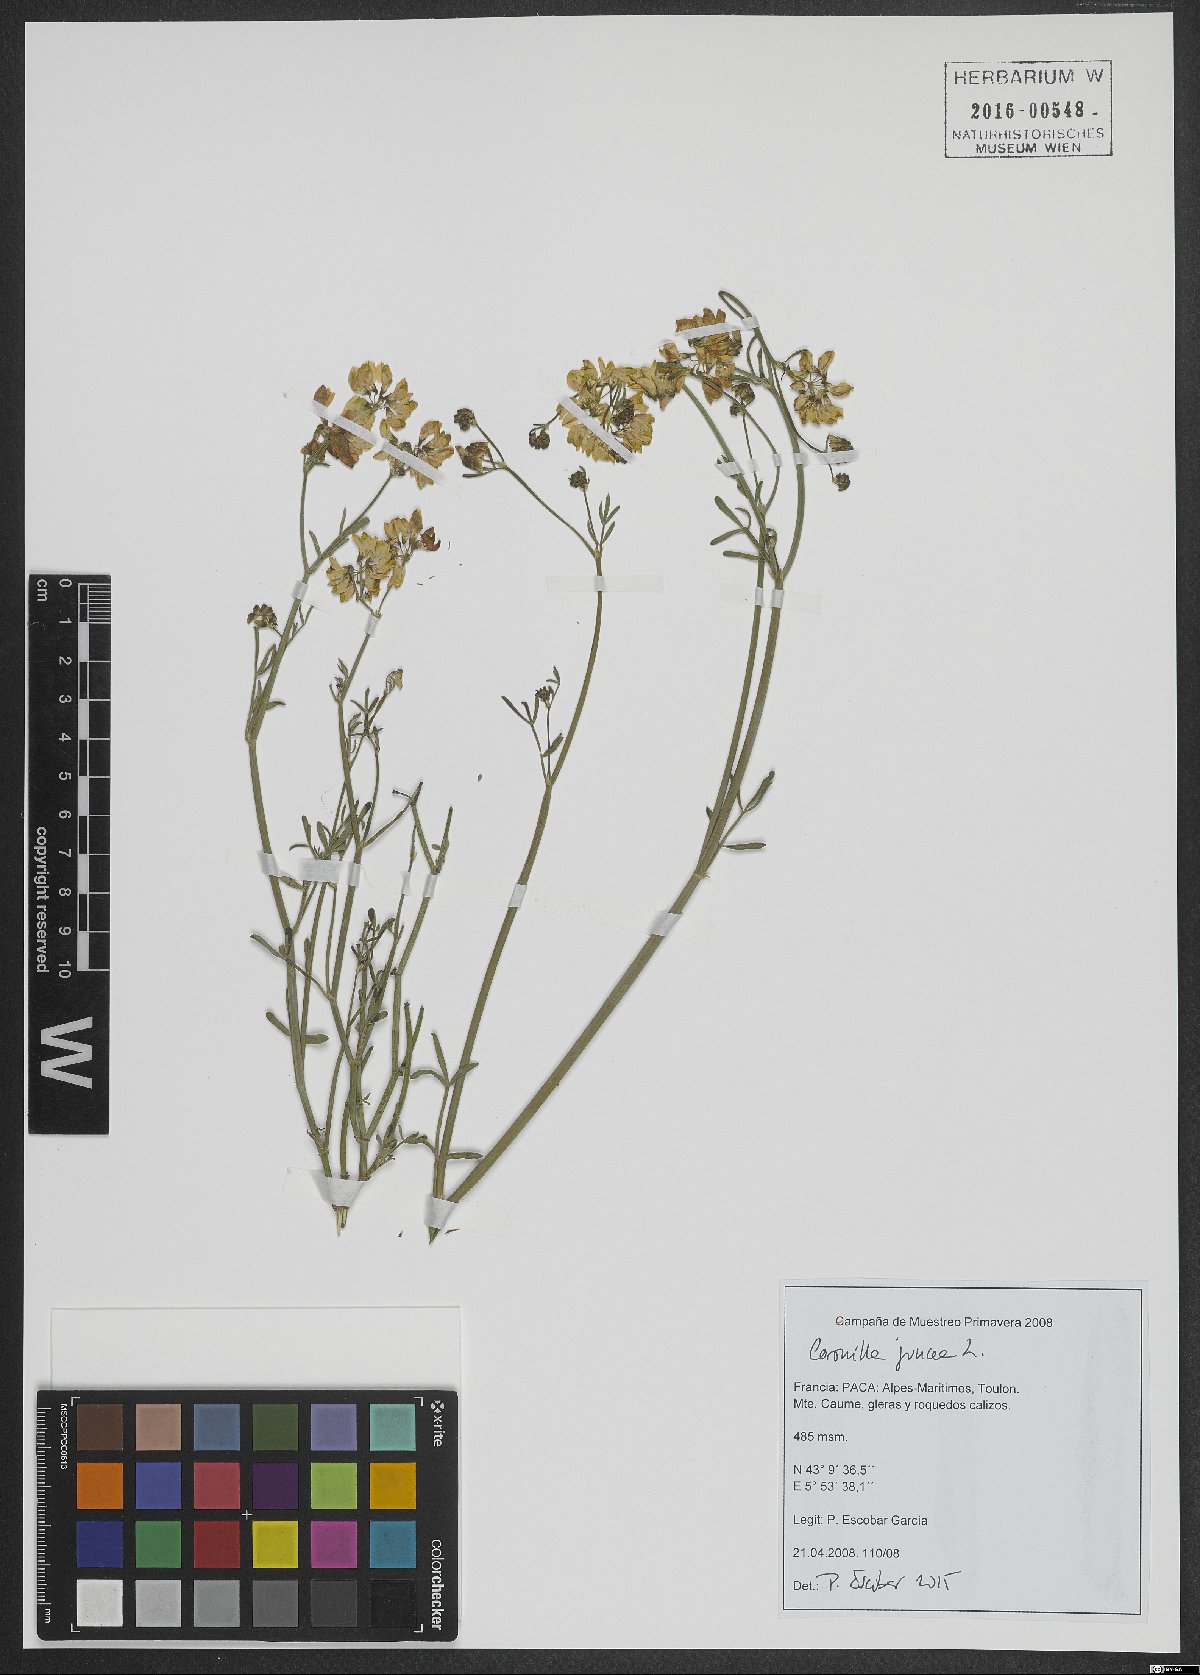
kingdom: Plantae
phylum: Tracheophyta
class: Magnoliopsida
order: Fabales
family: Fabaceae
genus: Coronilla
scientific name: Coronilla juncea
